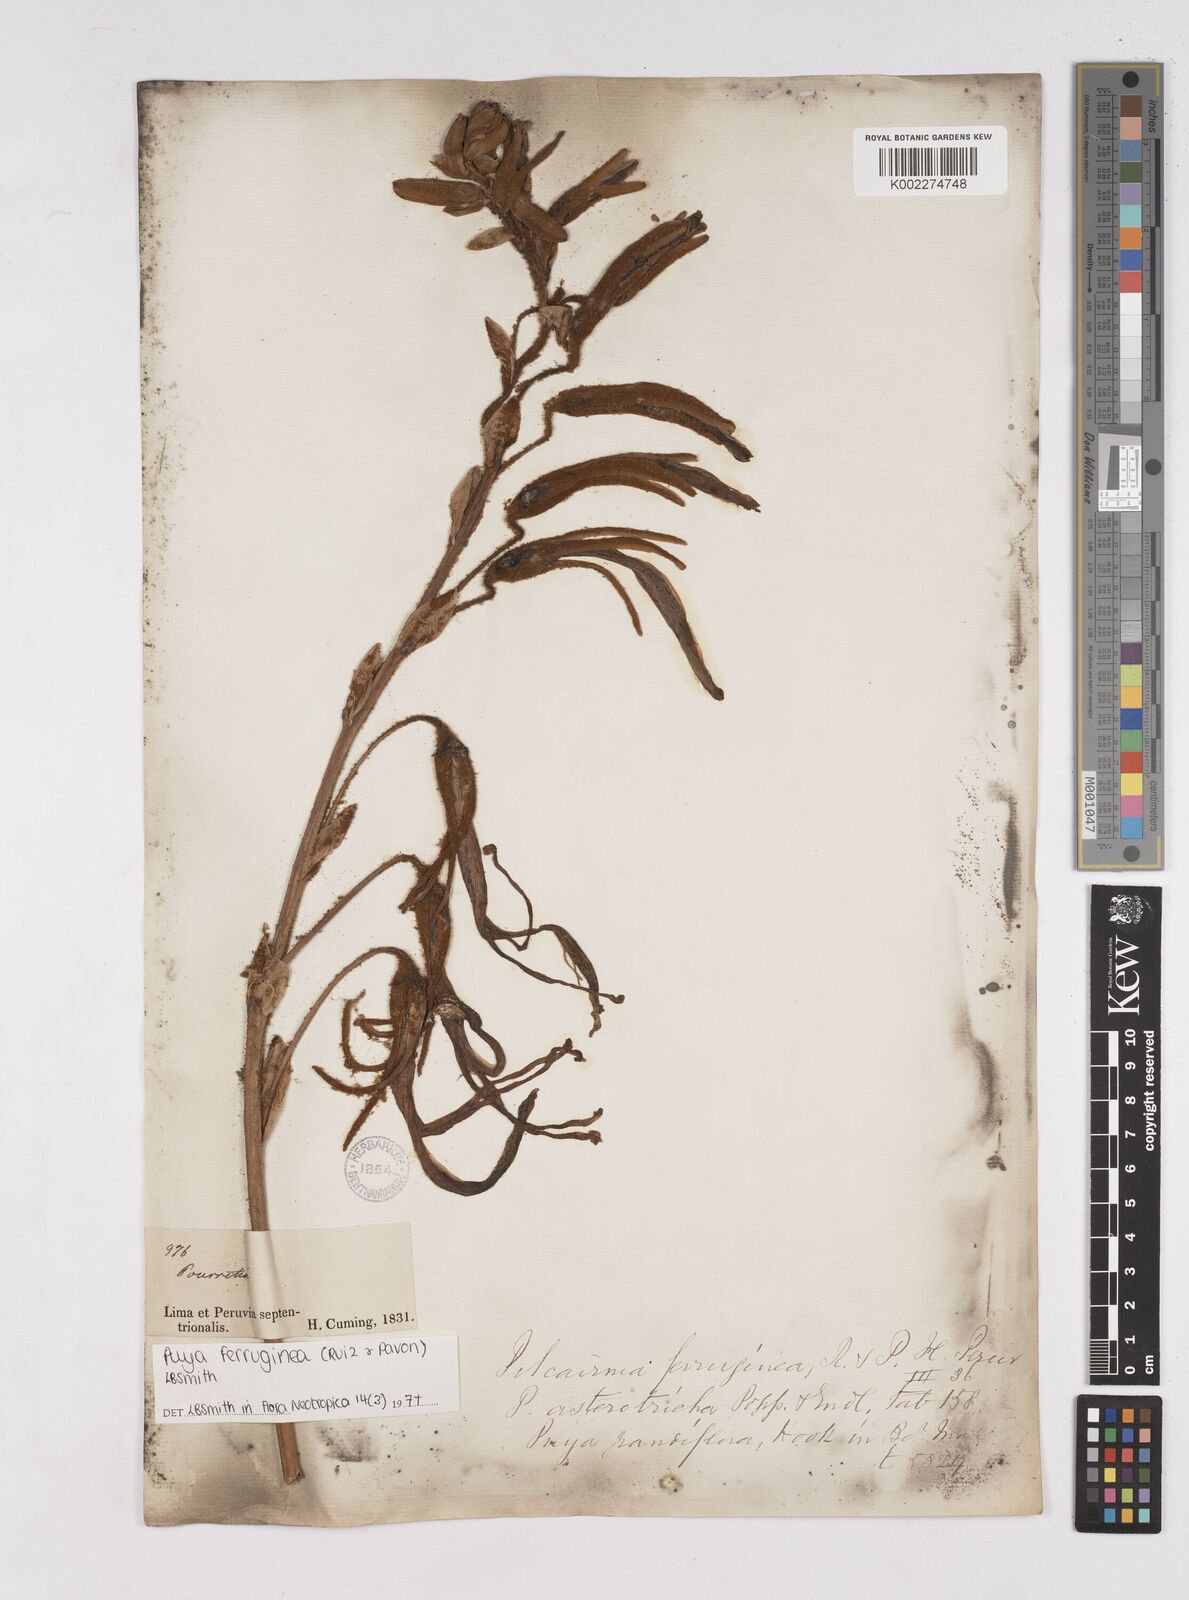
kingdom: Plantae
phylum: Tracheophyta
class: Liliopsida
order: Poales
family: Bromeliaceae
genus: Puya
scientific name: Puya ferruginea
